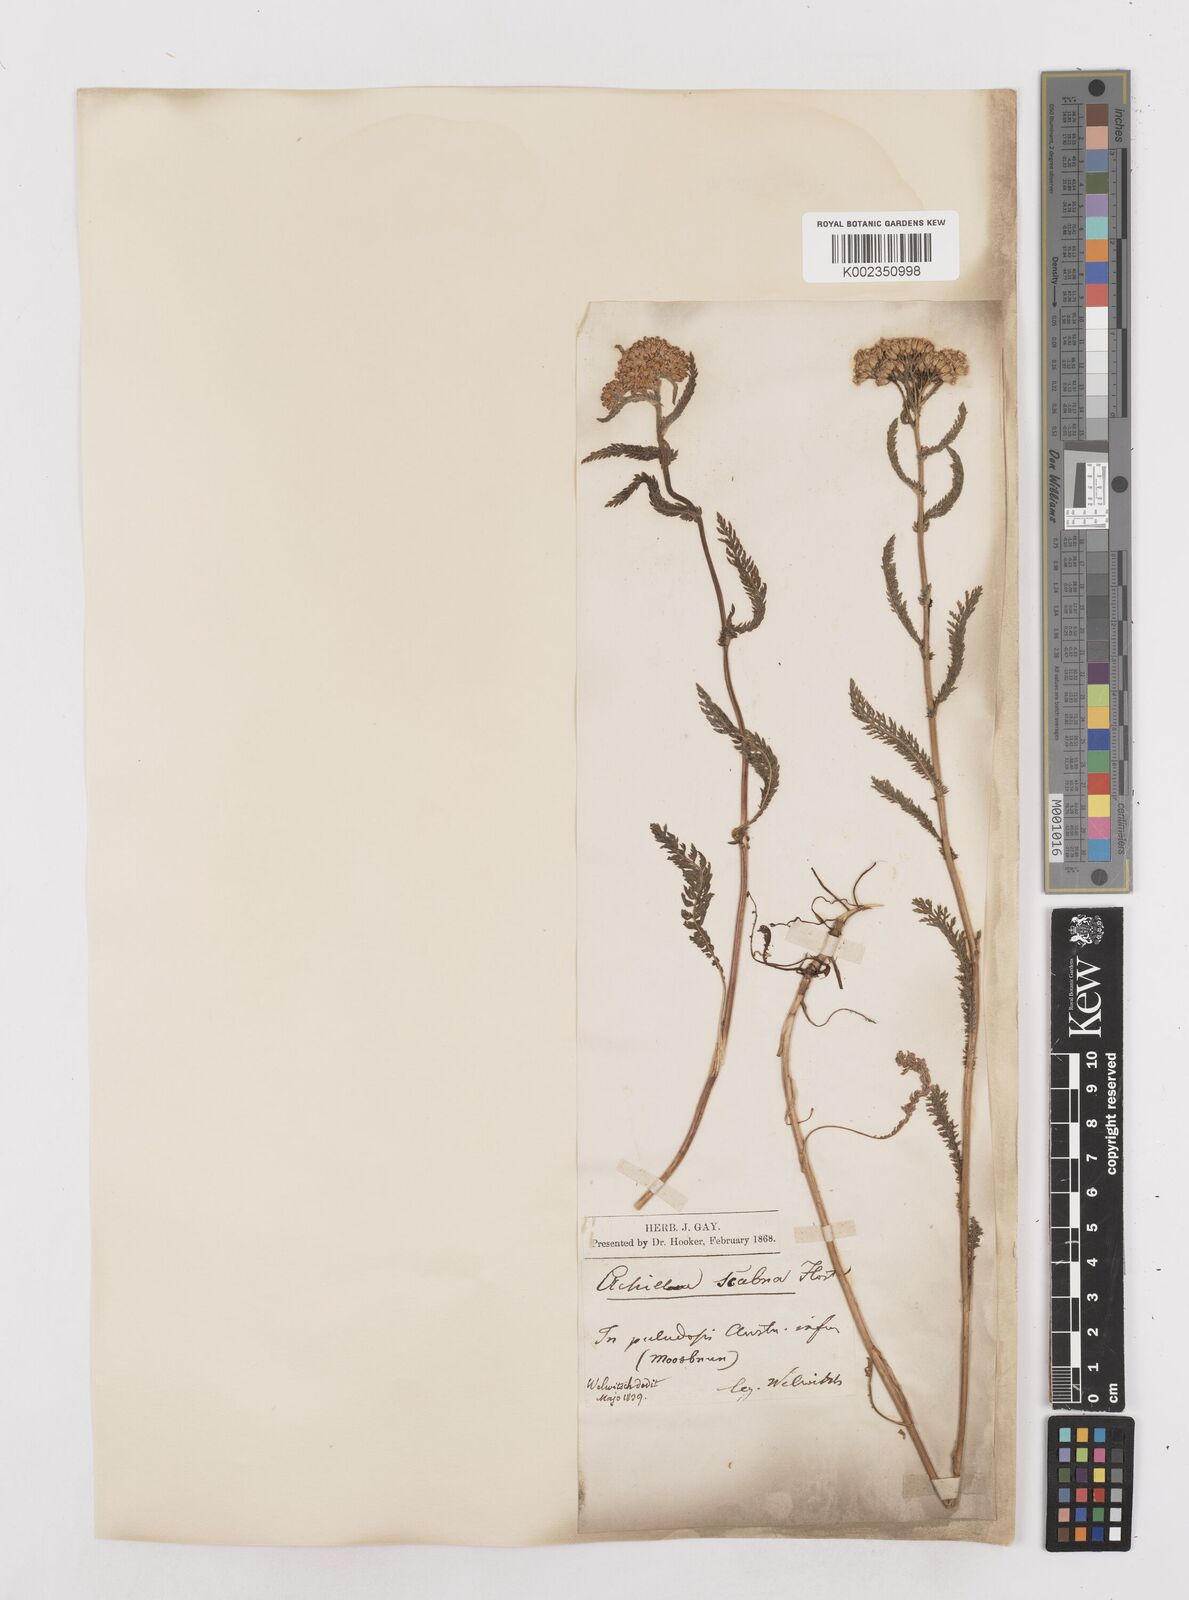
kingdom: Plantae
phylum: Tracheophyta
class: Magnoliopsida
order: Asterales
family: Asteraceae
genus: Achillea
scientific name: Achillea millefolium
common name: Yarrow
